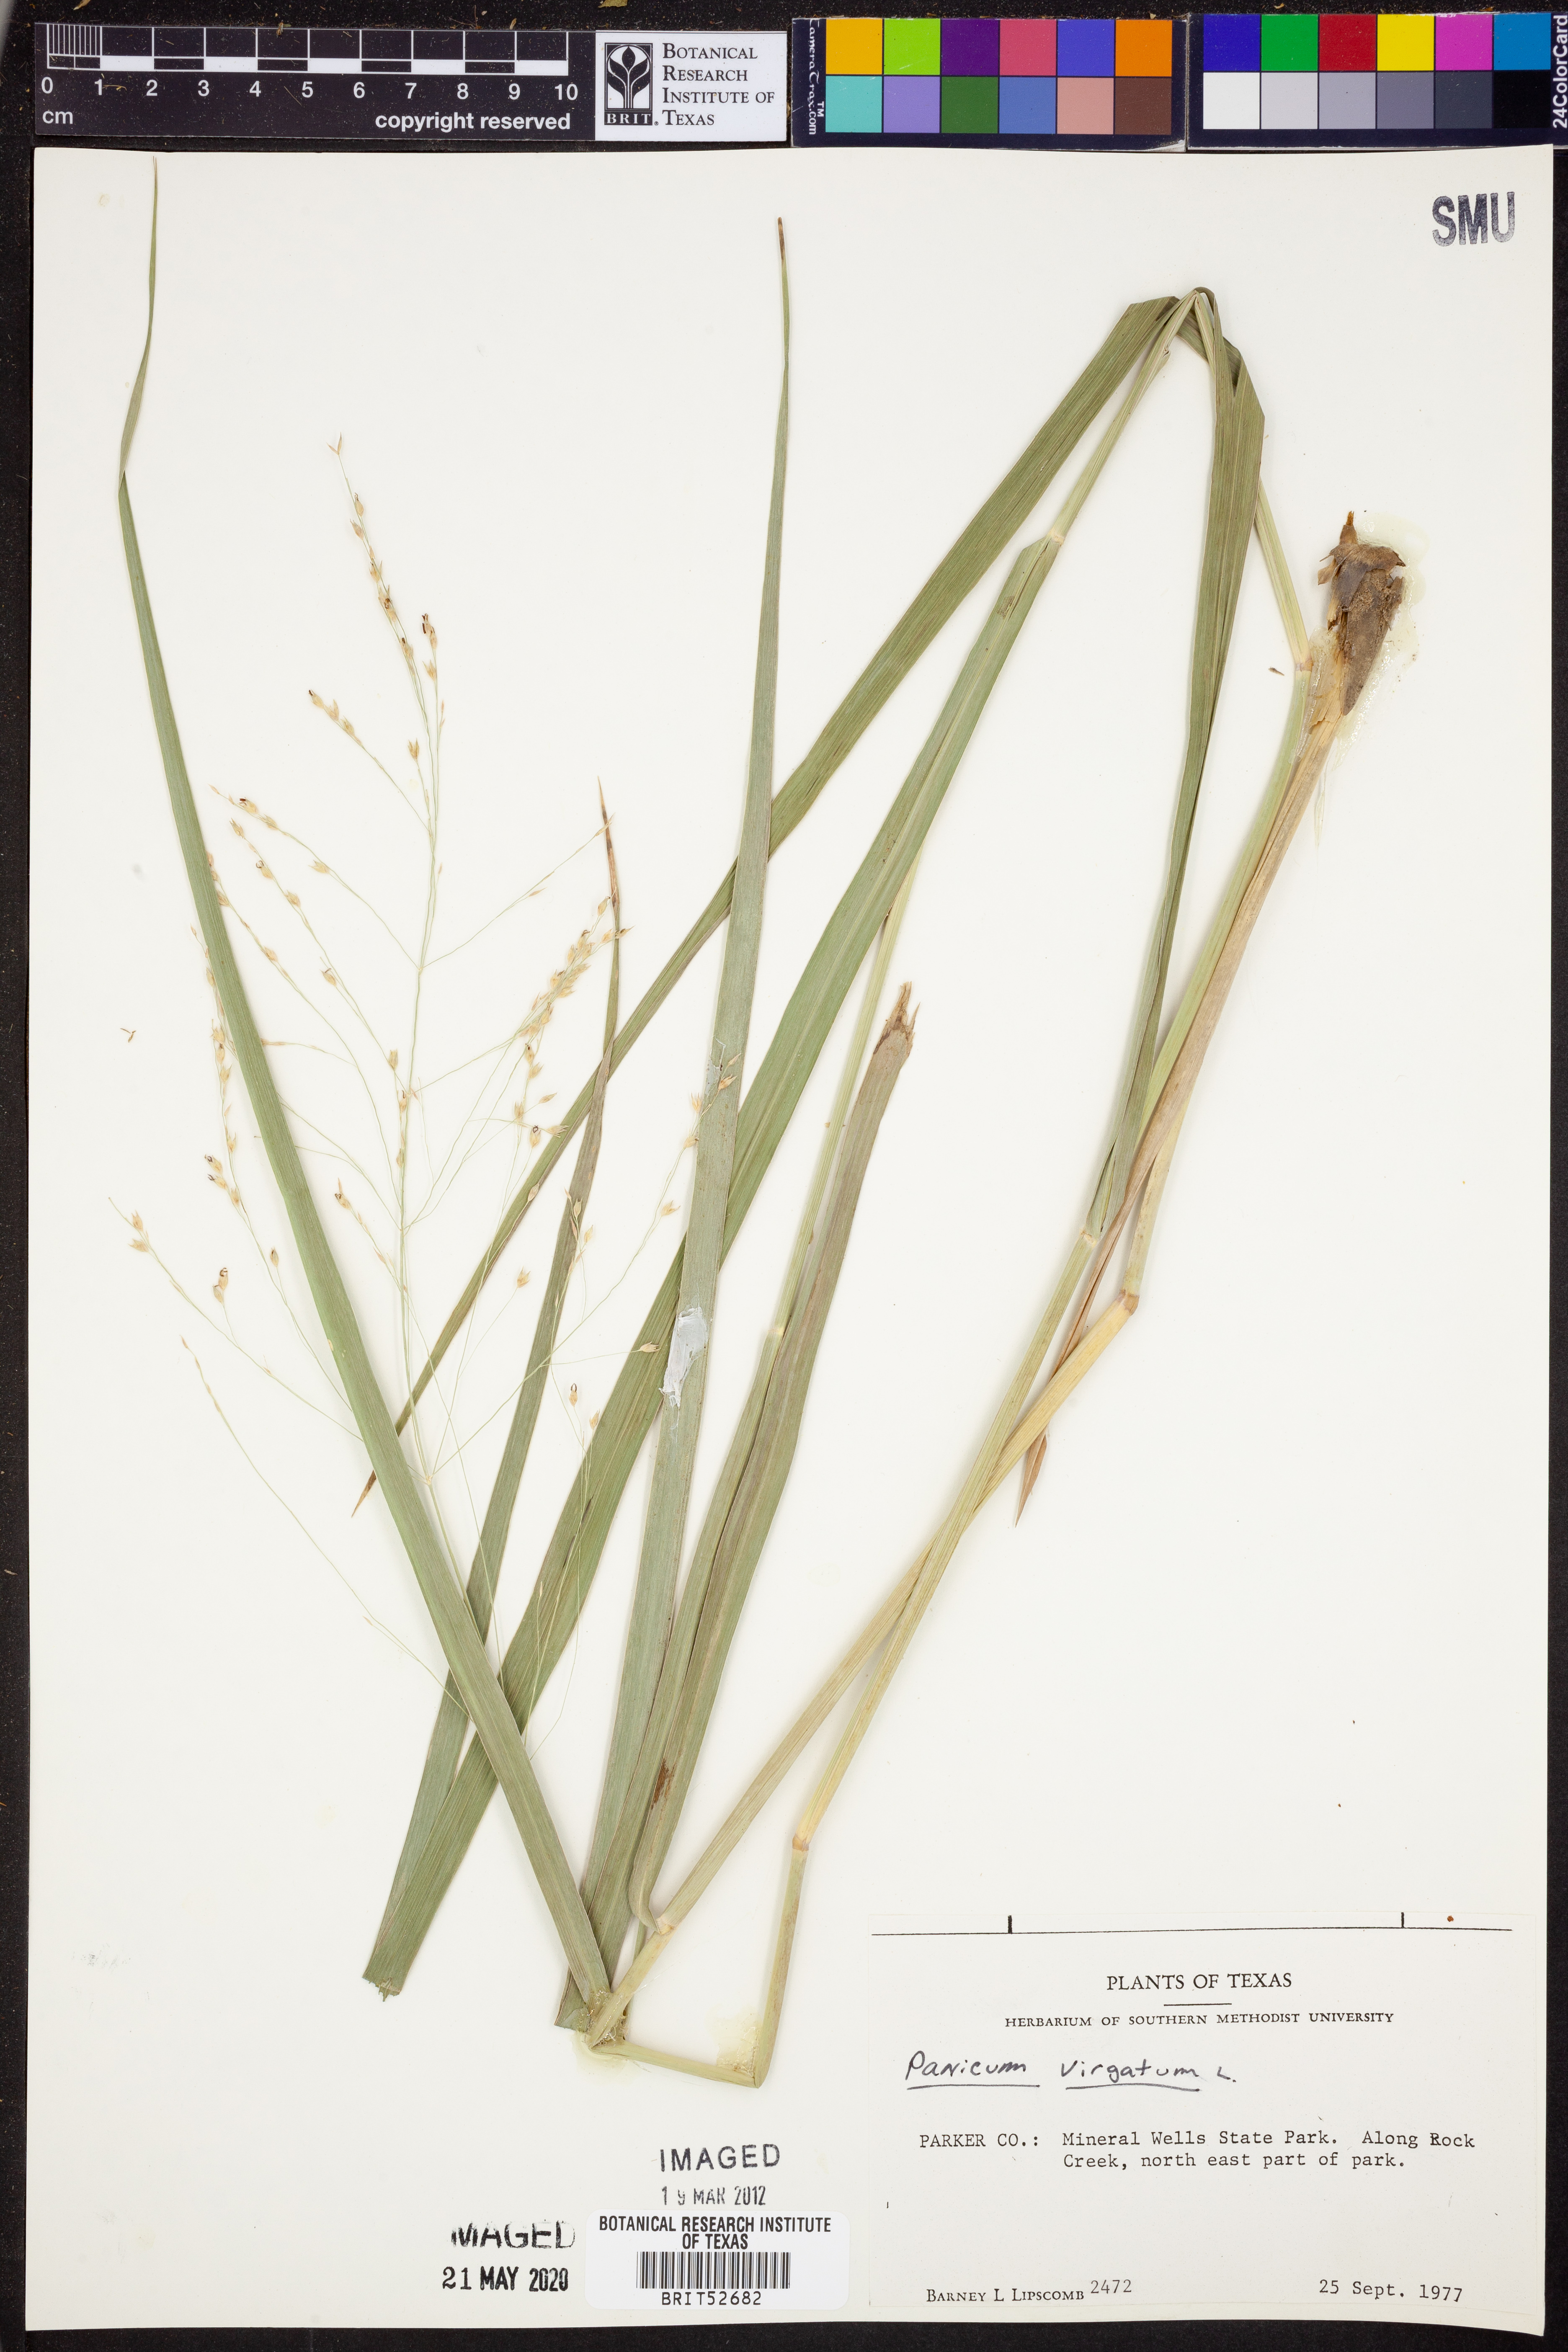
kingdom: Plantae
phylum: Tracheophyta
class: Liliopsida
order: Poales
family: Poaceae
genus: Panicum
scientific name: Panicum virgatum
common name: Switchgrass
